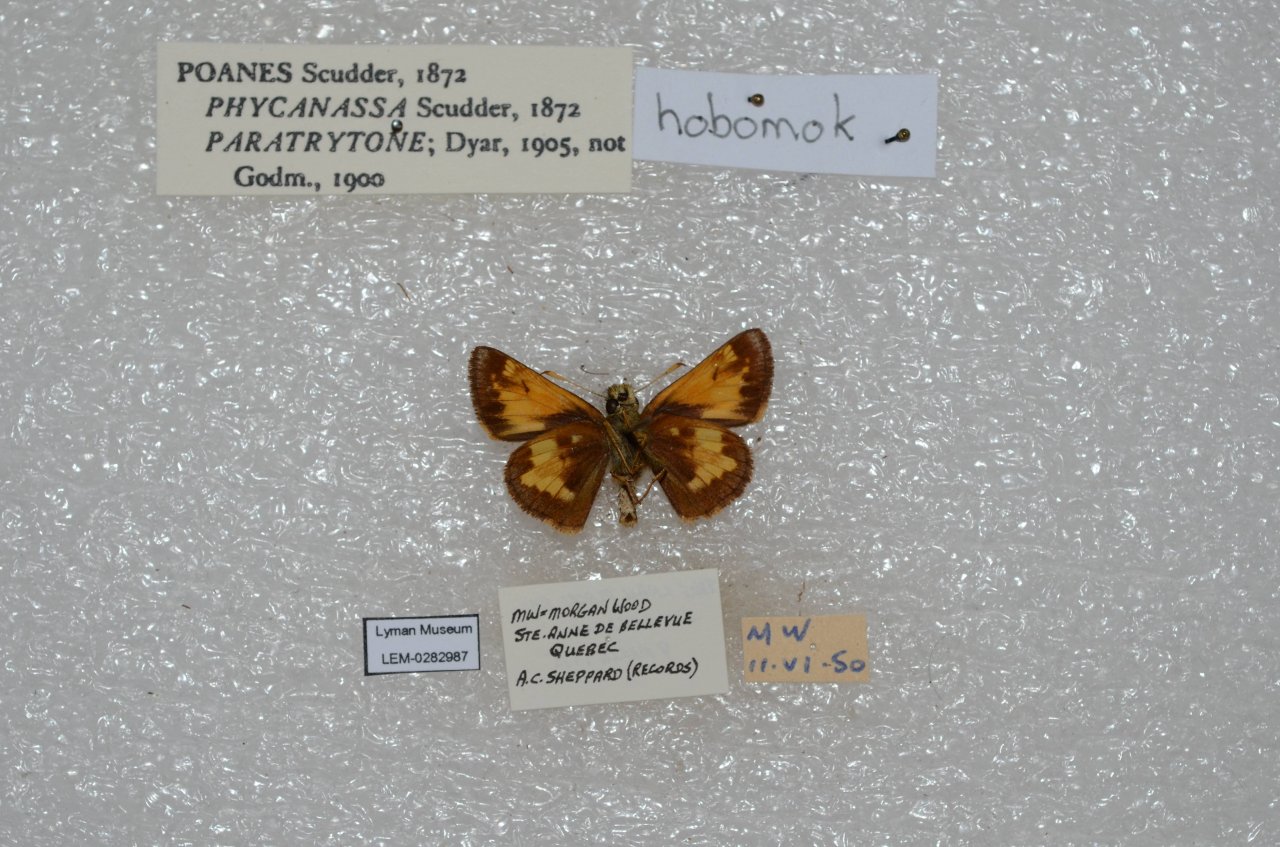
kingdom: Animalia
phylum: Arthropoda
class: Insecta
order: Lepidoptera
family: Hesperiidae
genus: Lon
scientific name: Lon hobomok
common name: Hobomok Skipper
